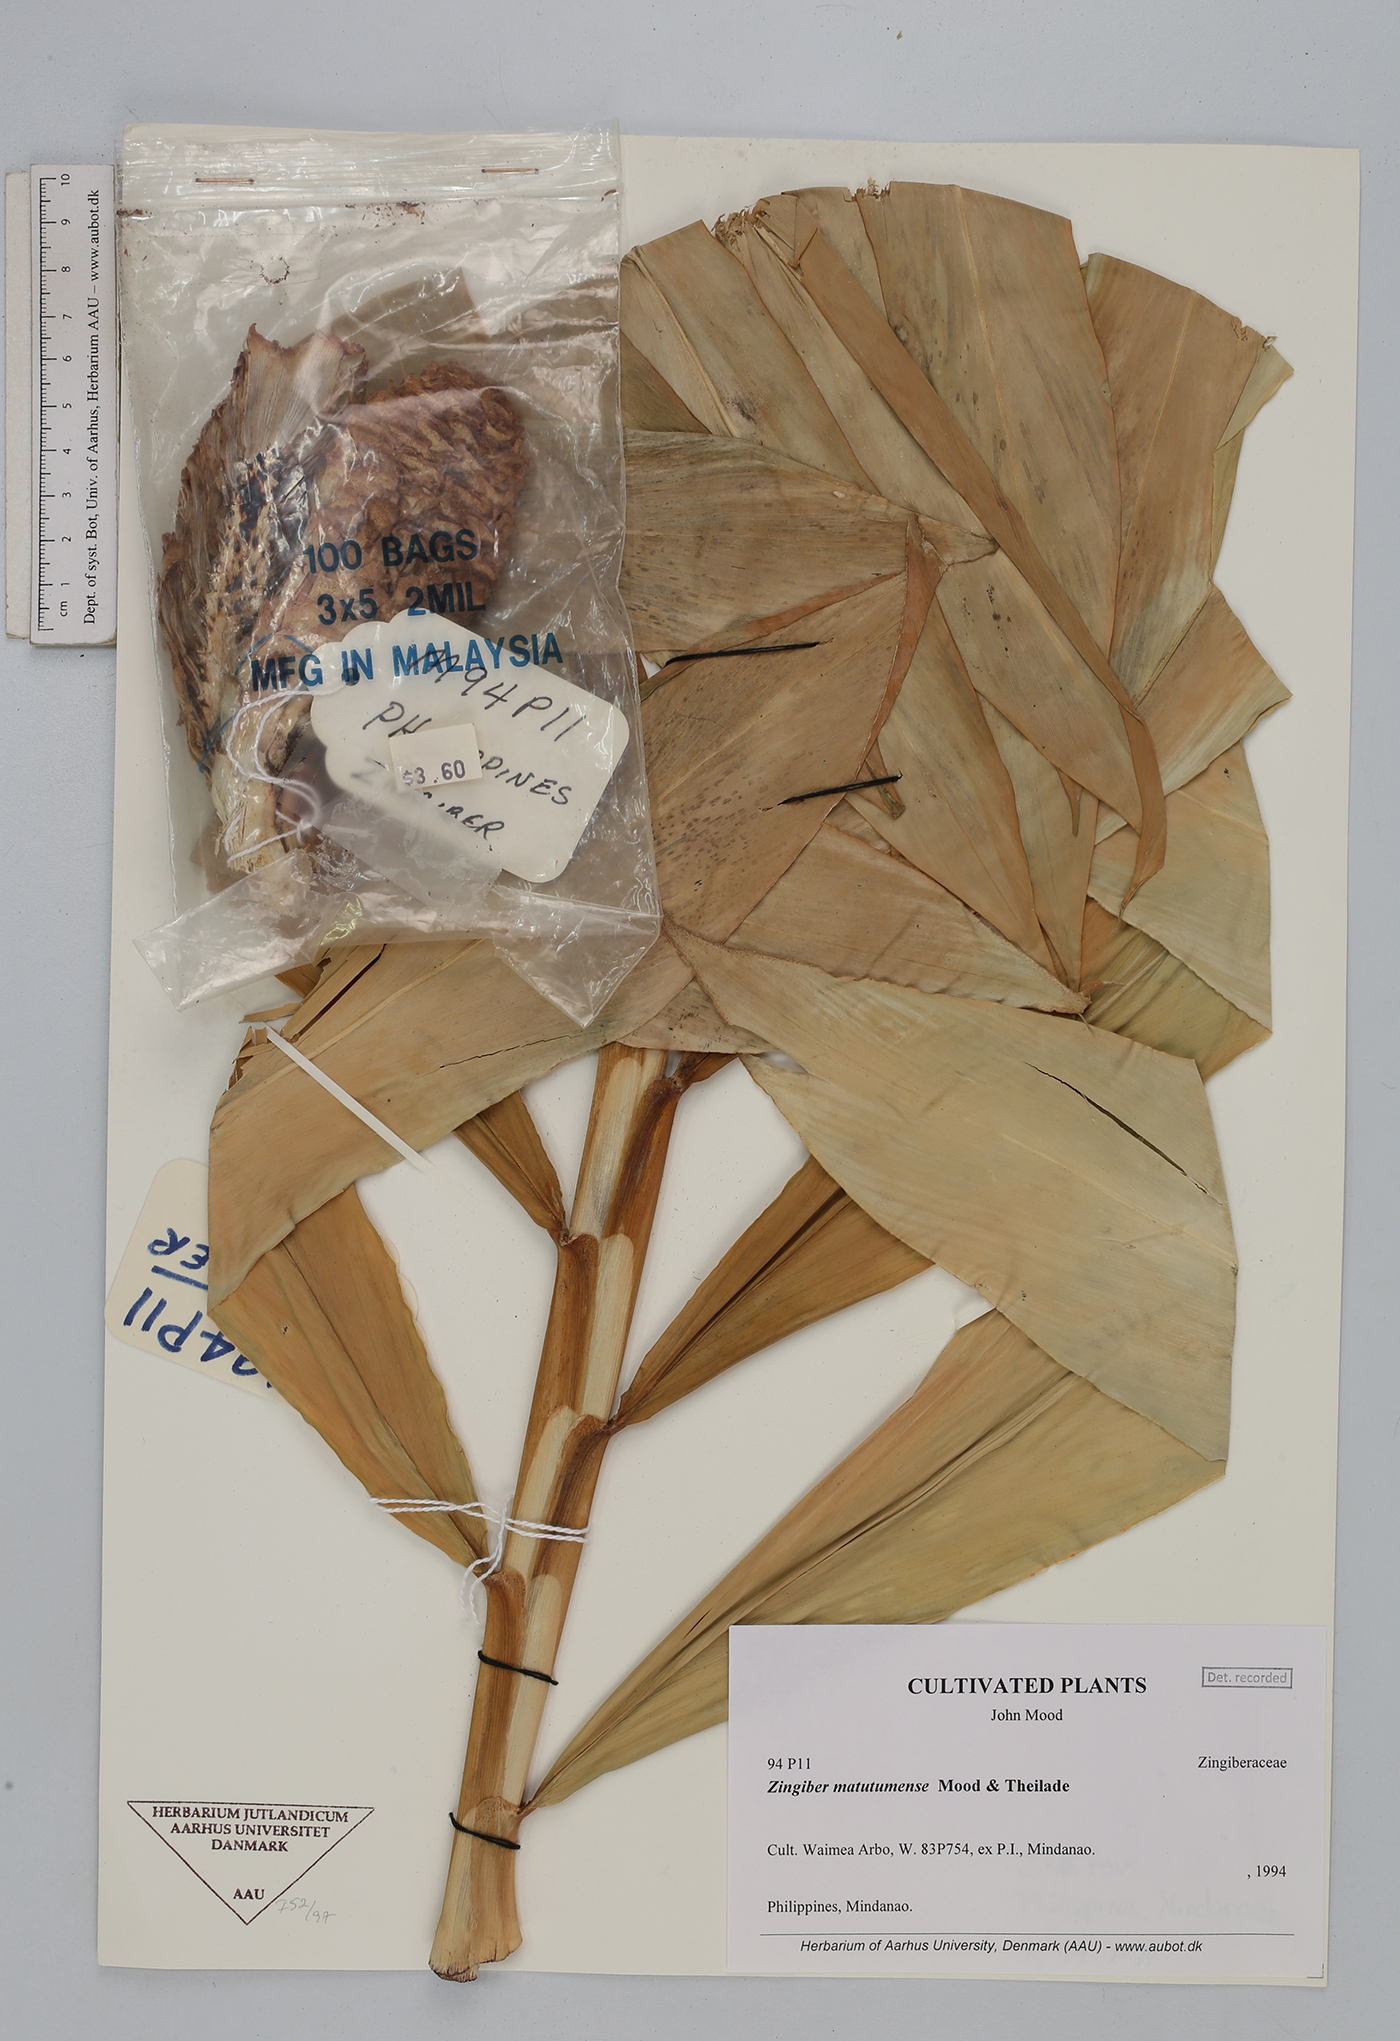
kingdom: Plantae
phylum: Tracheophyta
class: Liliopsida
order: Zingiberales
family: Zingiberaceae
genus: Zingiber
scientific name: Zingiber matutumense
